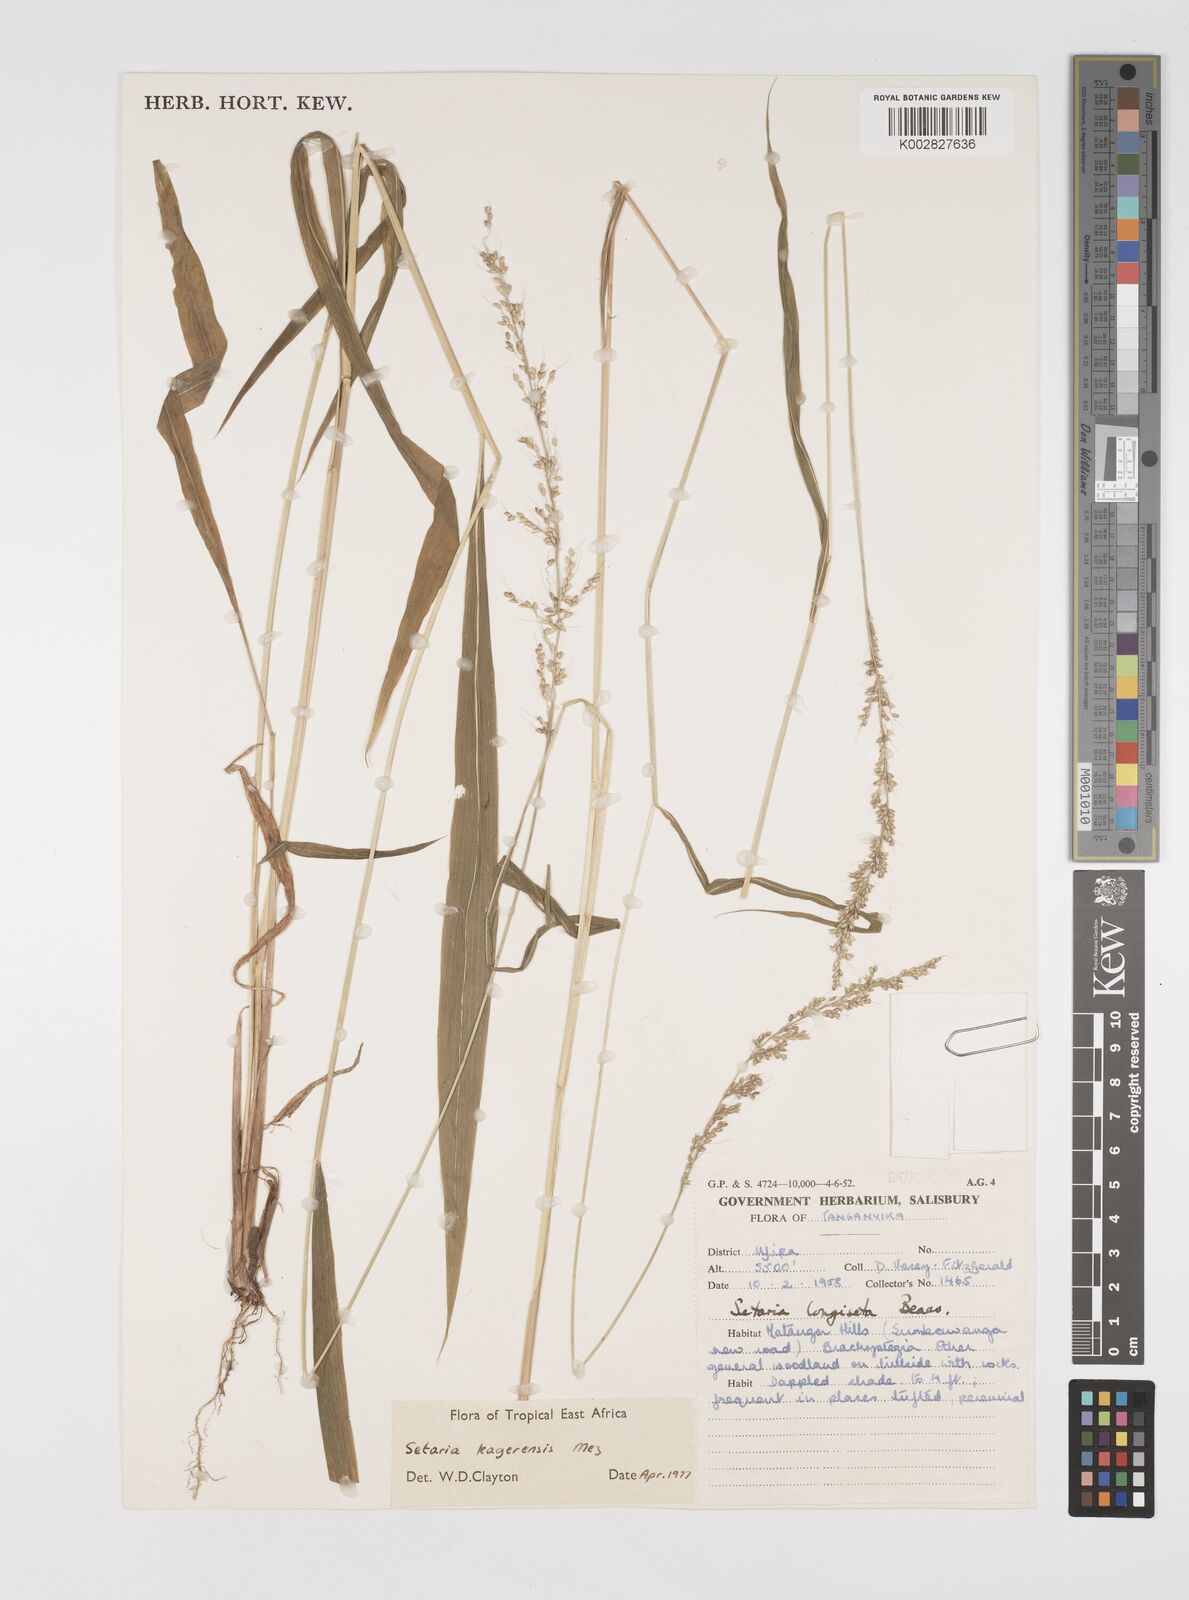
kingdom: Plantae
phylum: Tracheophyta
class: Liliopsida
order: Poales
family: Poaceae
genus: Setaria
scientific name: Setaria kagerensis
